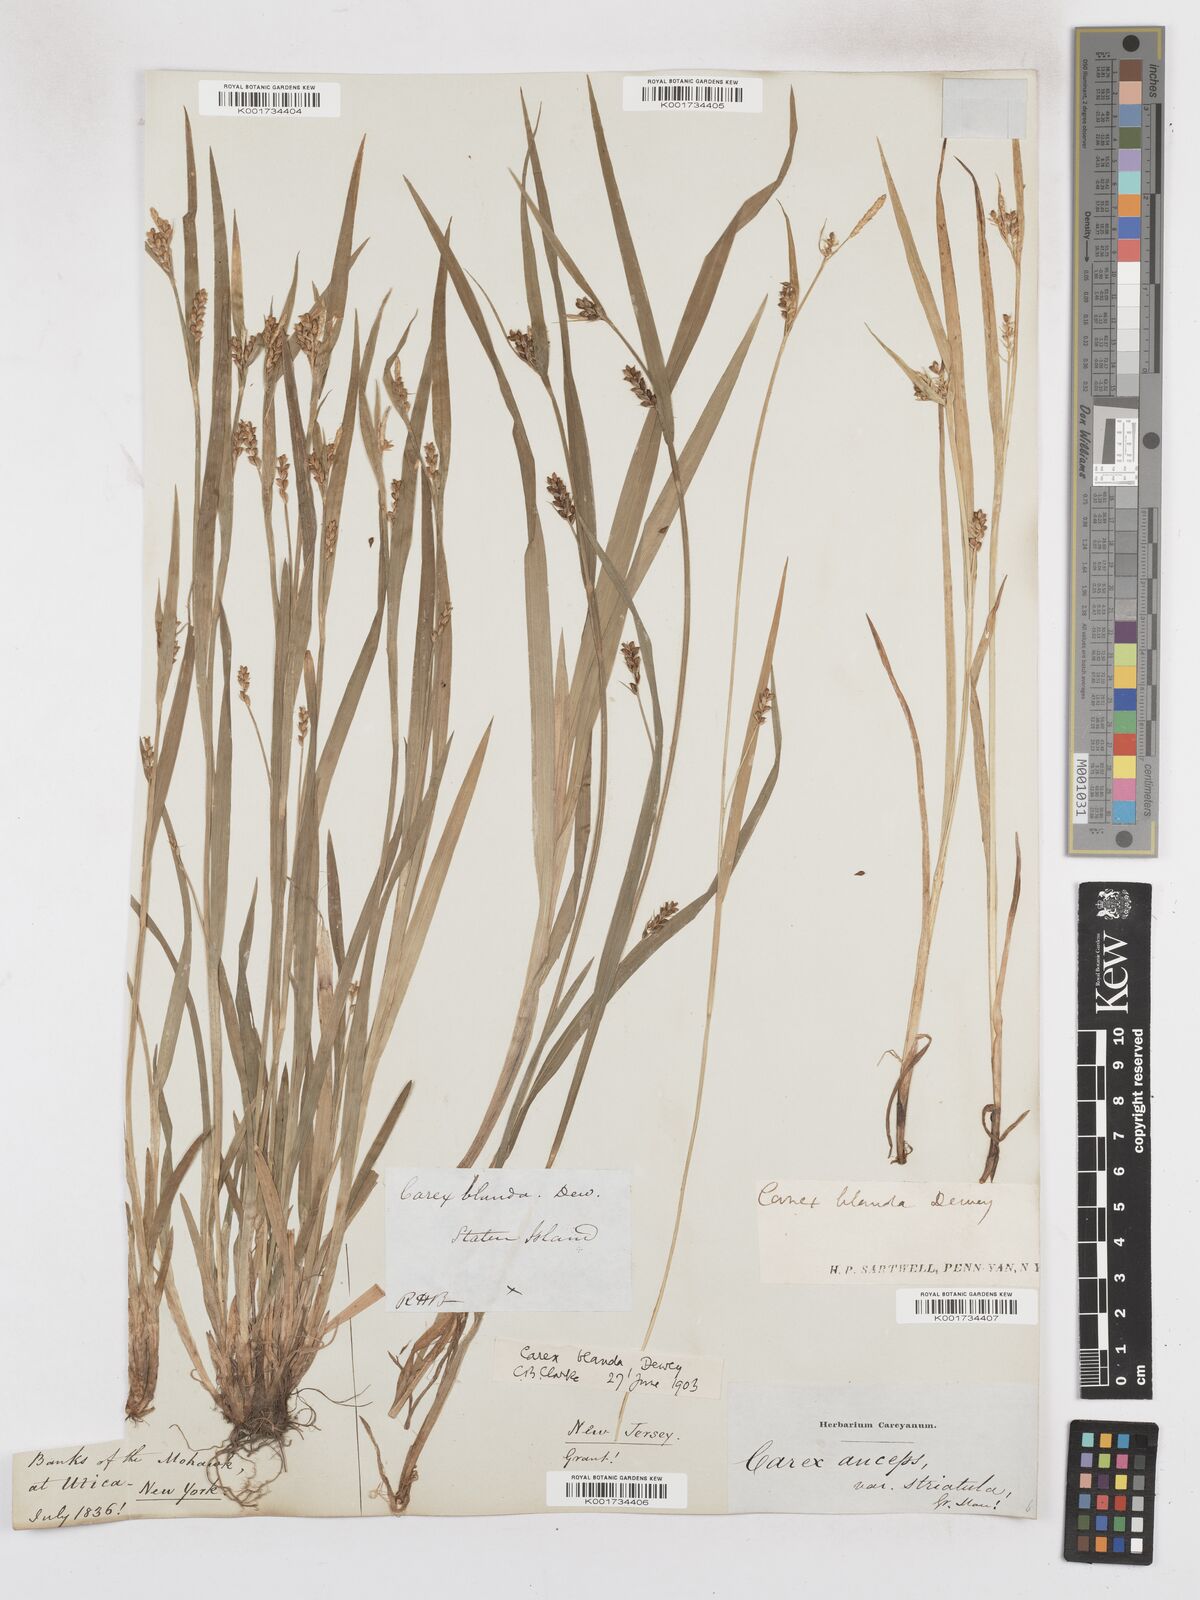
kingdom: Plantae
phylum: Tracheophyta
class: Liliopsida
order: Poales
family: Cyperaceae
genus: Carex
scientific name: Carex blanda
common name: Bland sedge
